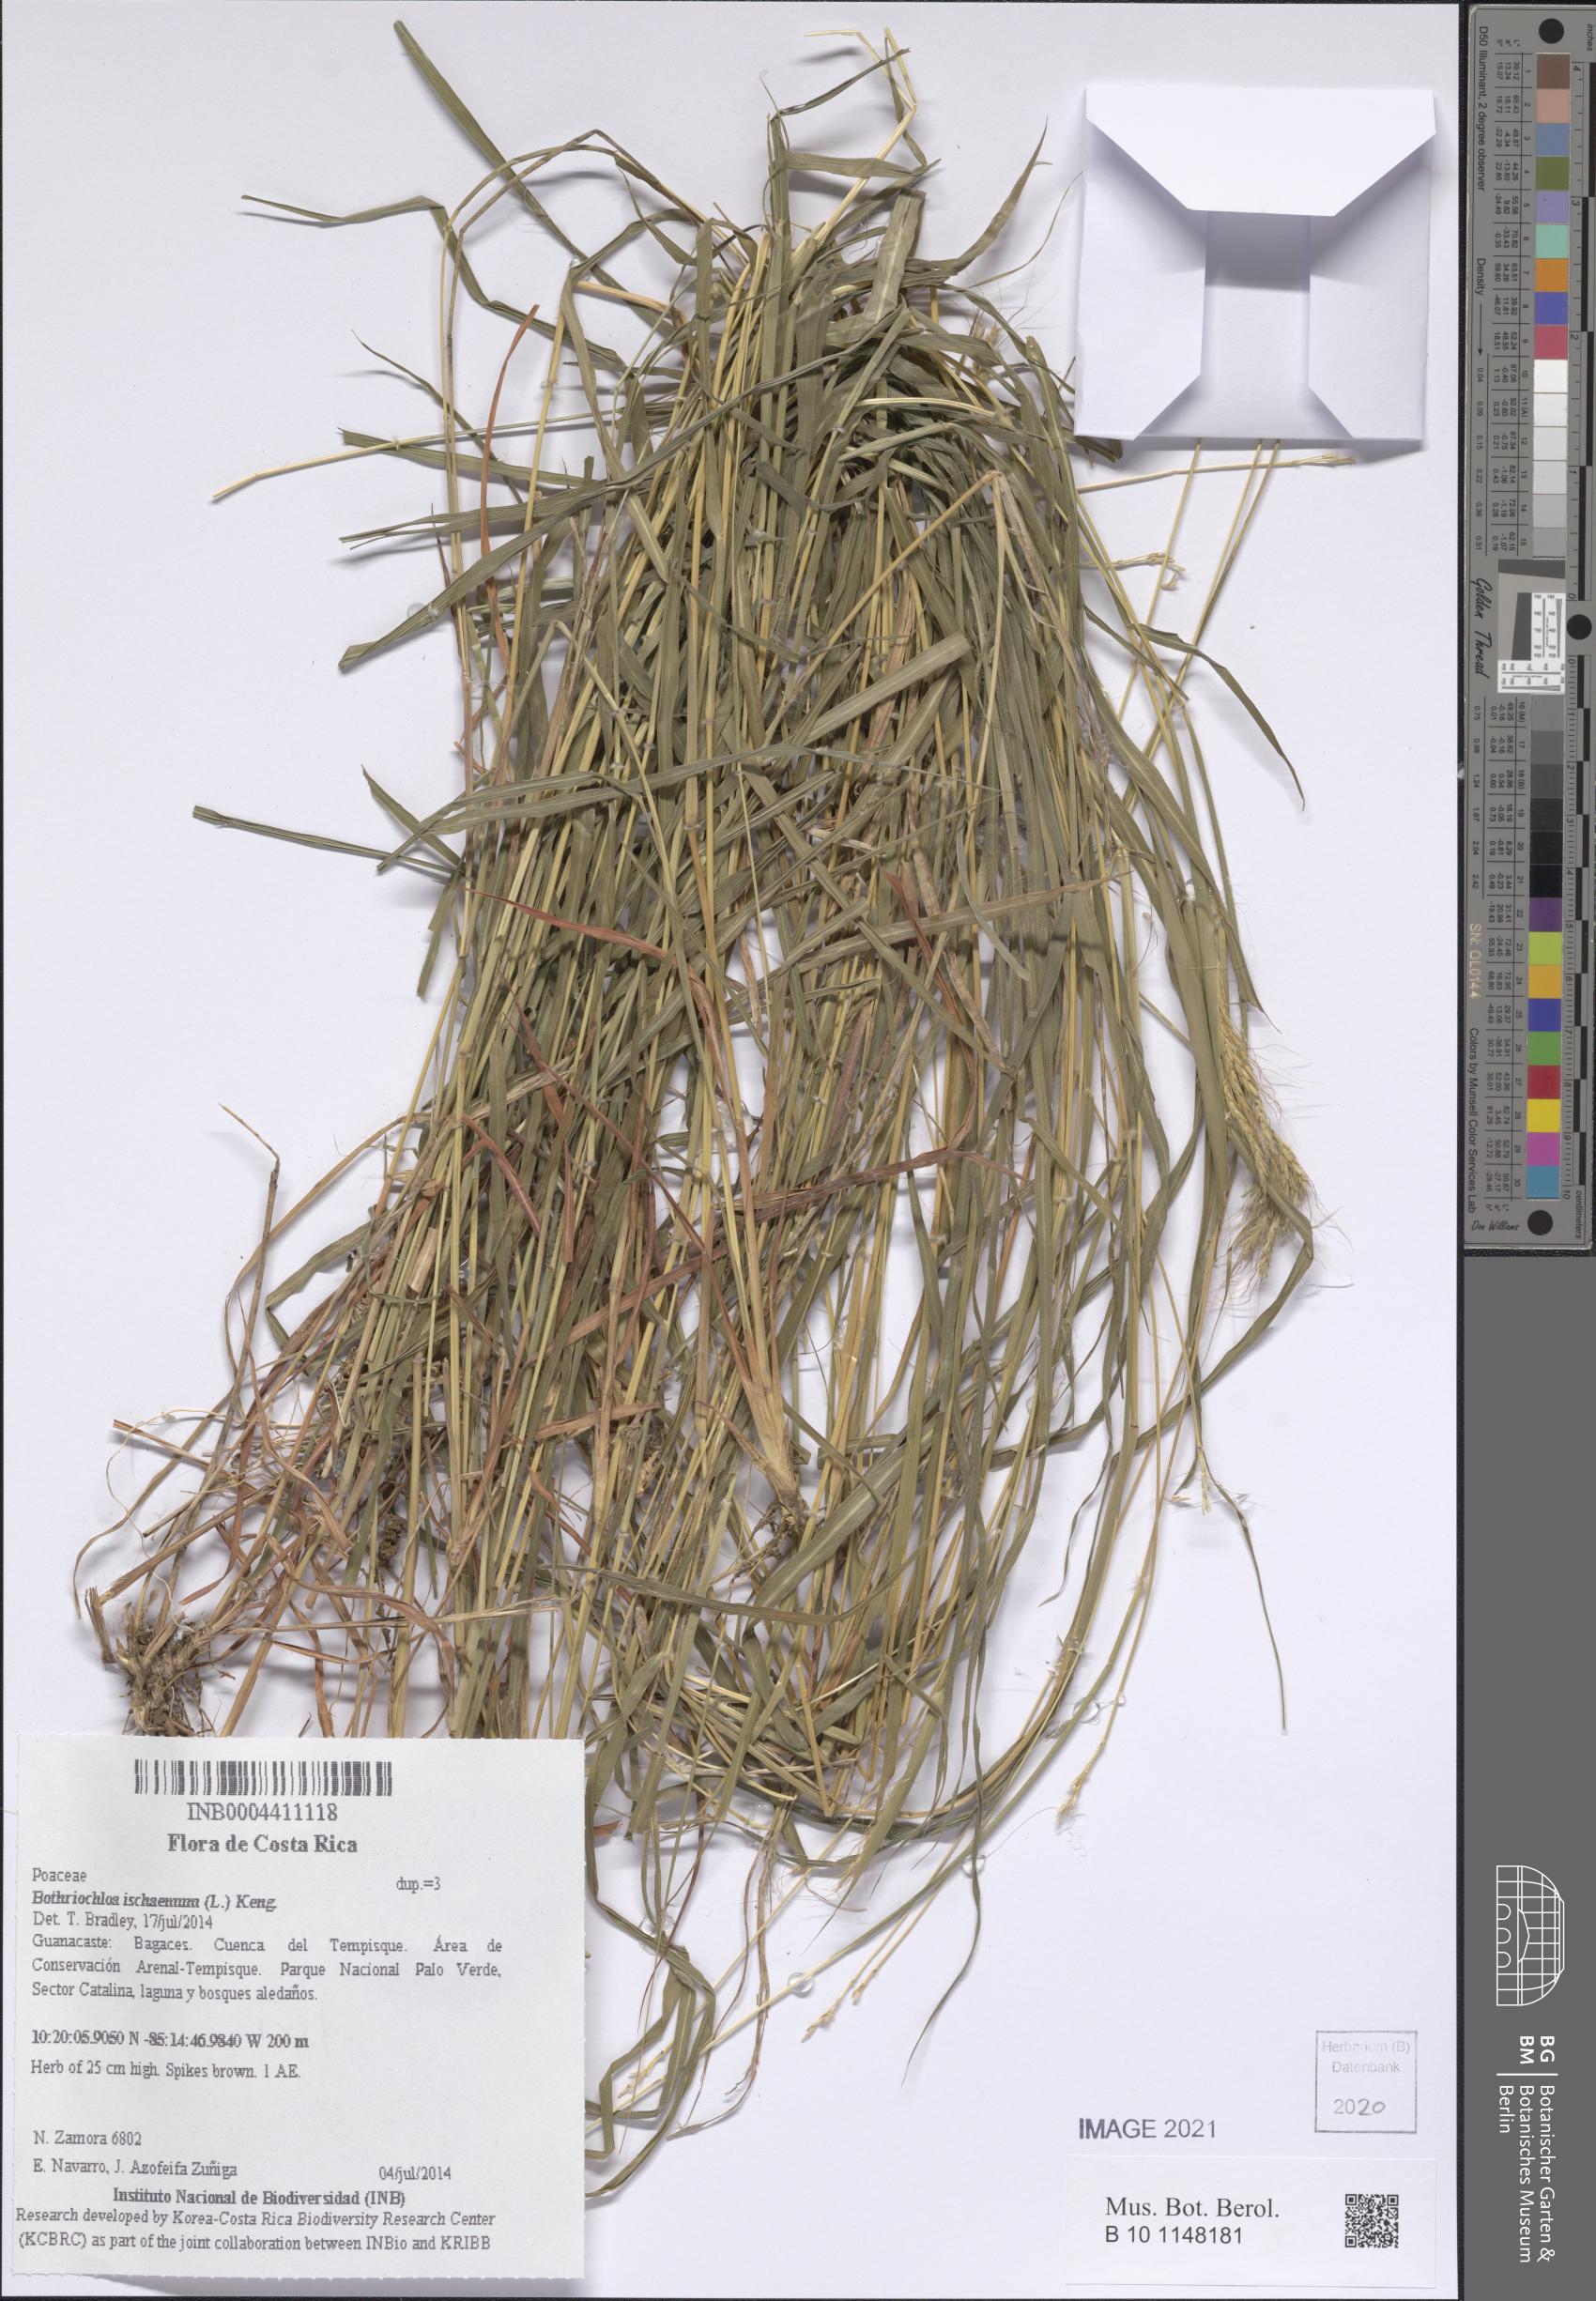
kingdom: Plantae
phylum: Tracheophyta
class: Liliopsida
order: Poales
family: Poaceae
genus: Bothriochloa
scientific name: Bothriochloa ischaemum
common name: Yellow bluestem
